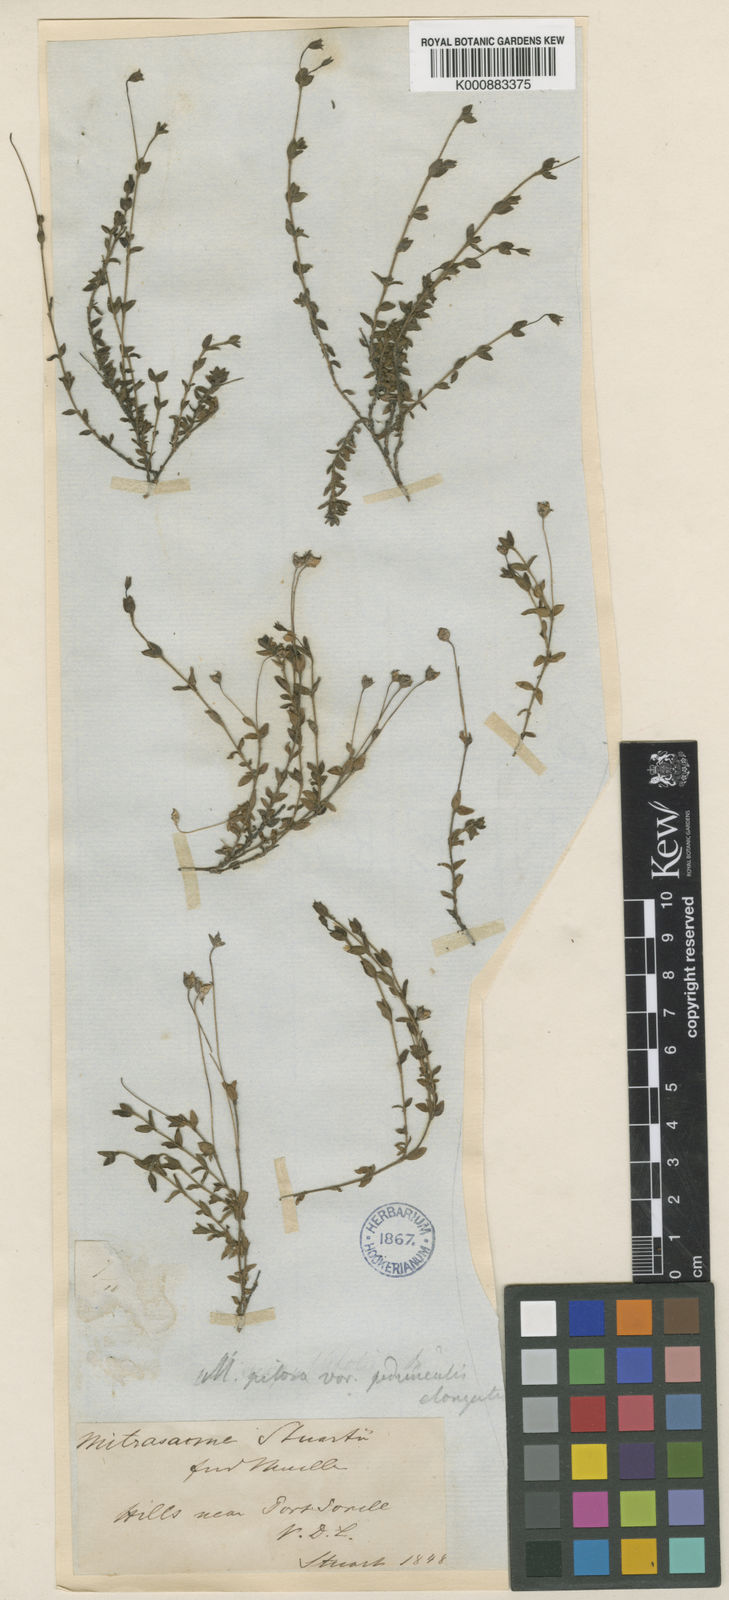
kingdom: Plantae
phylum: Tracheophyta
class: Magnoliopsida
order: Gentianales
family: Loganiaceae
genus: Mitrasacme
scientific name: Mitrasacme pilosa
